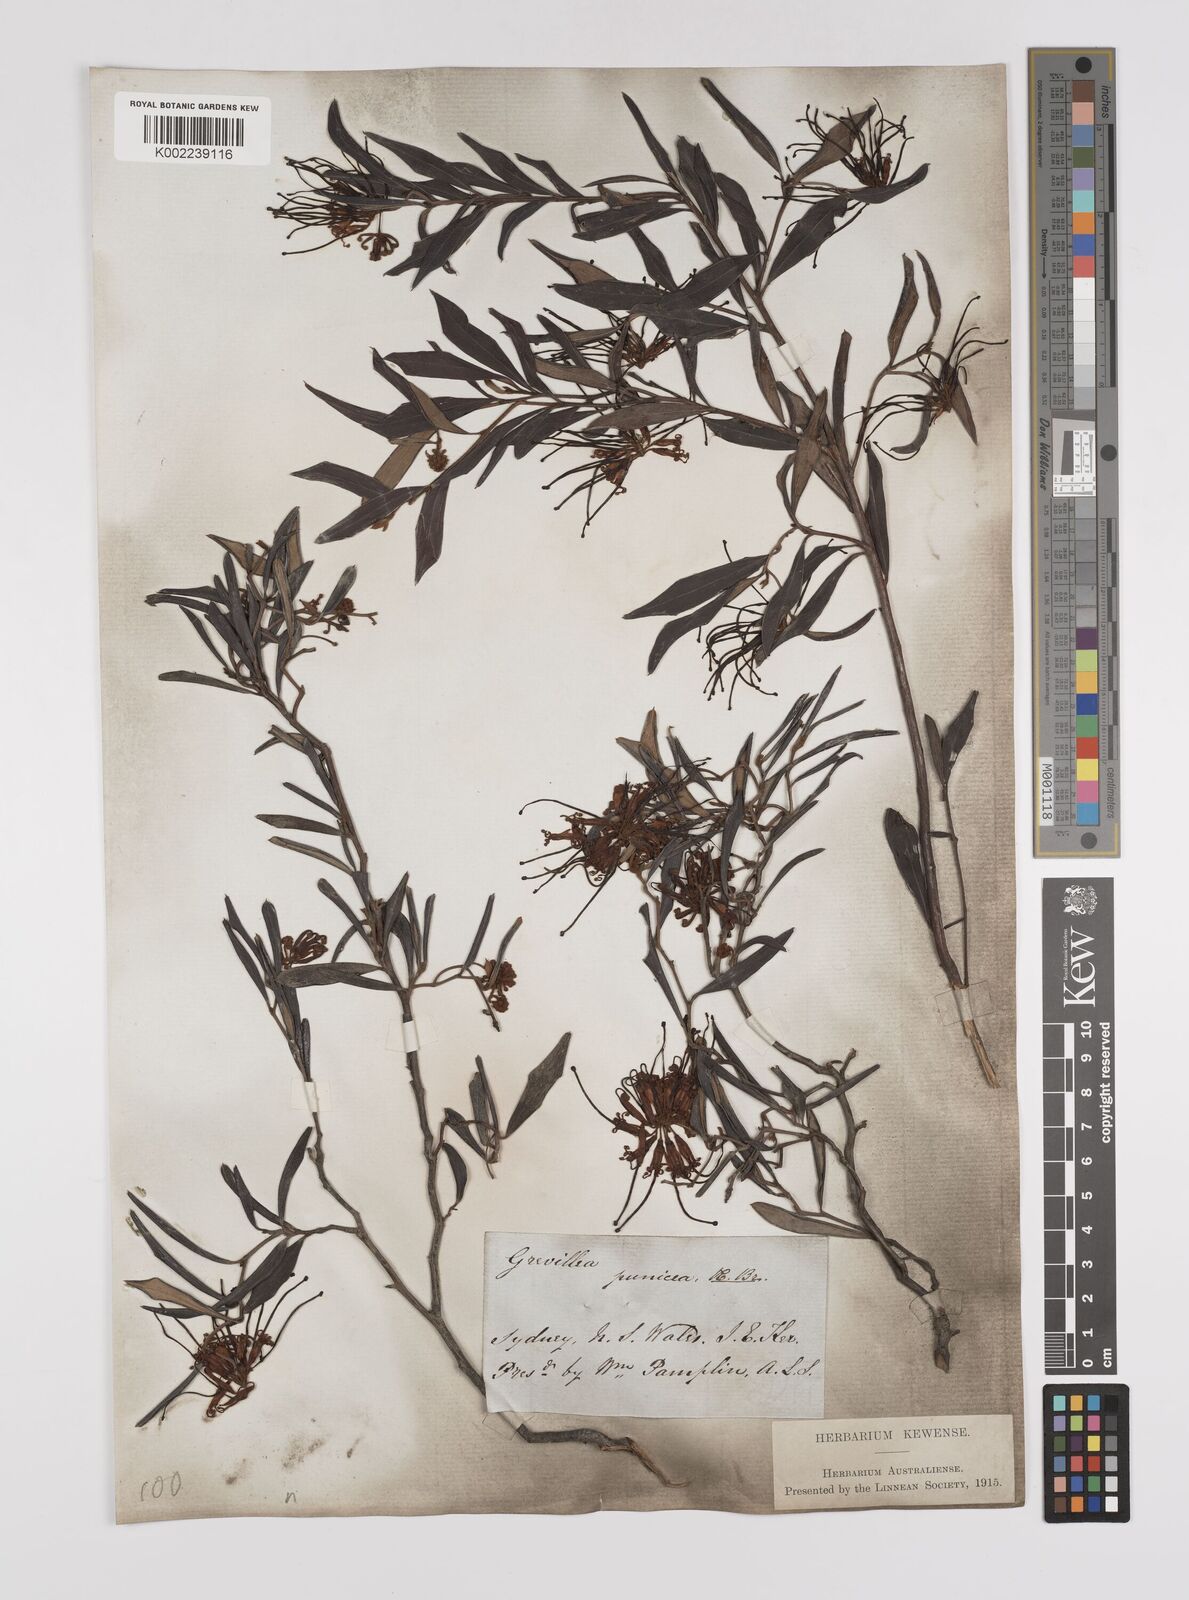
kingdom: Plantae
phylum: Tracheophyta
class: Magnoliopsida
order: Proteales
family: Proteaceae
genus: Grevillea
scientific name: Grevillea speciosa
